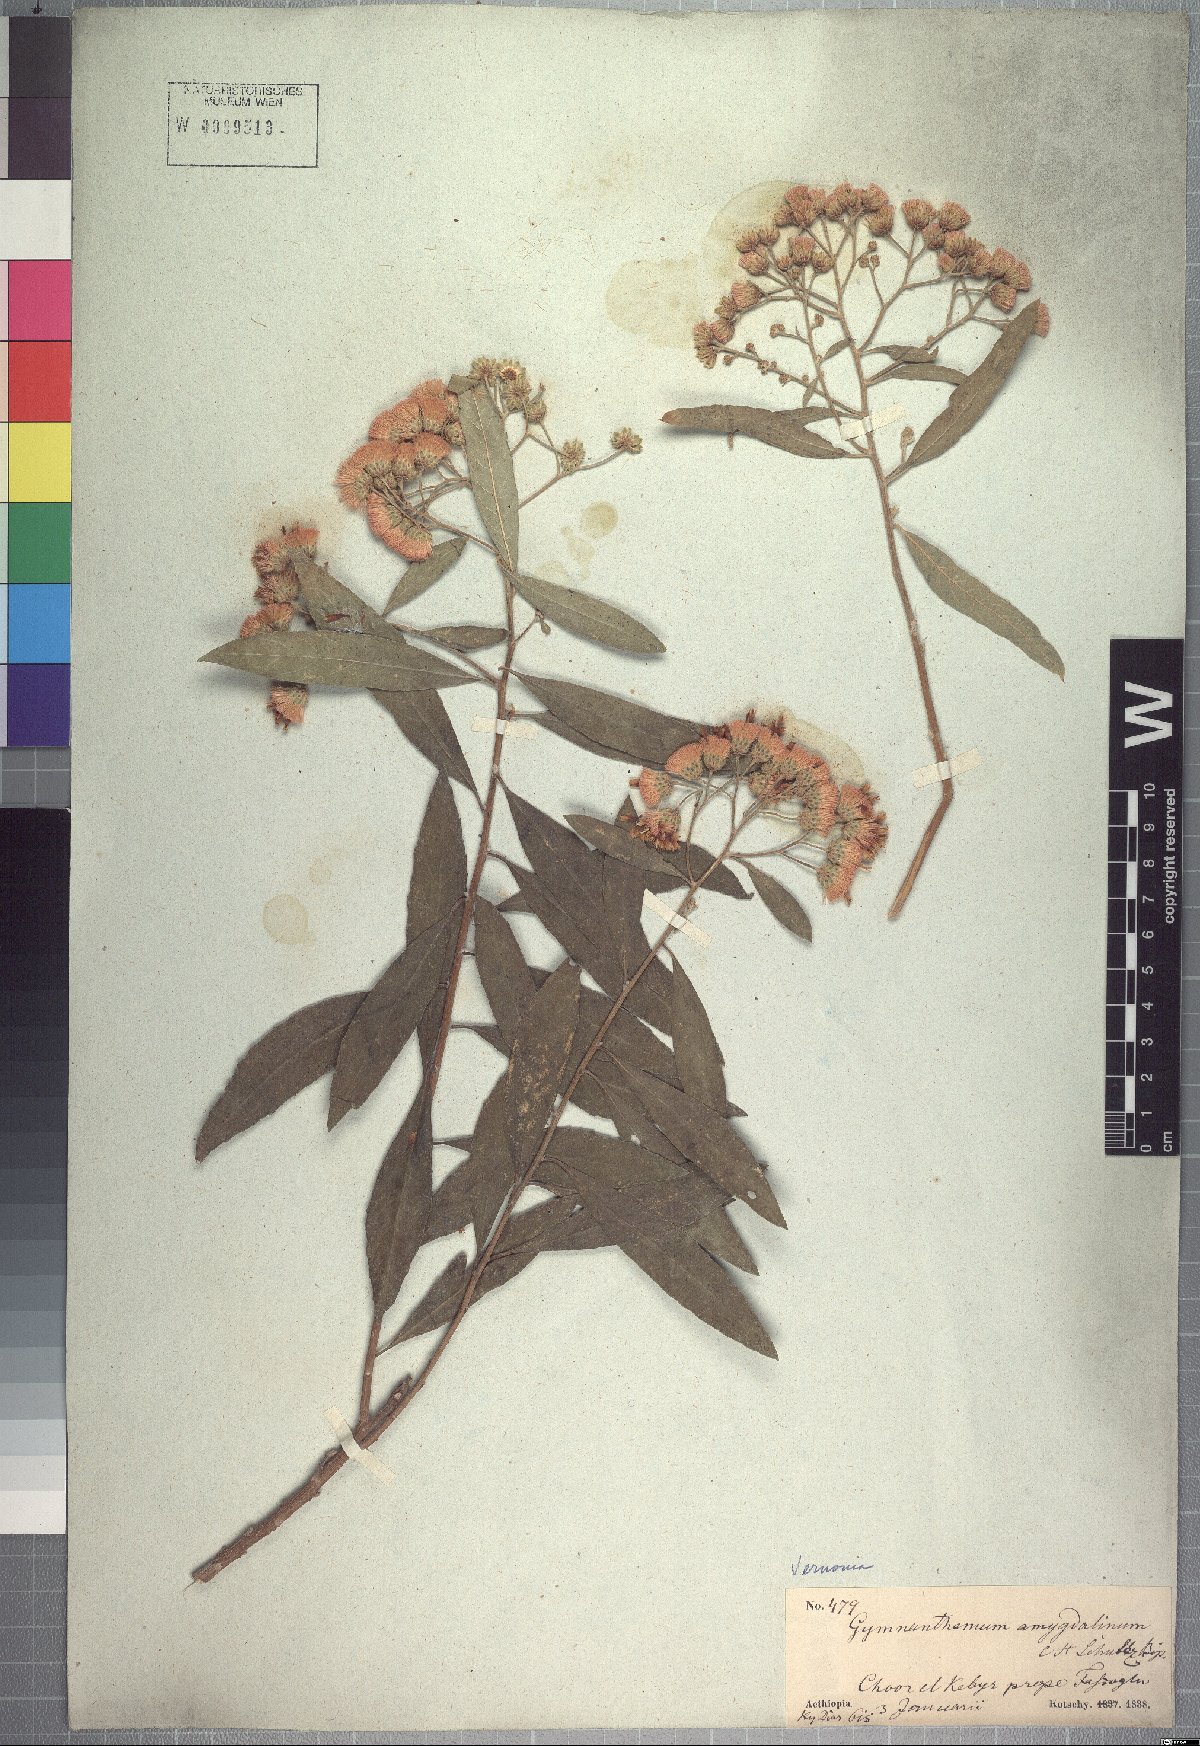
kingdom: Plantae
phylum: Tracheophyta
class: Magnoliopsida
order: Asterales
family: Asteraceae
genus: Gymnanthemum
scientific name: Gymnanthemum amygdalinum
